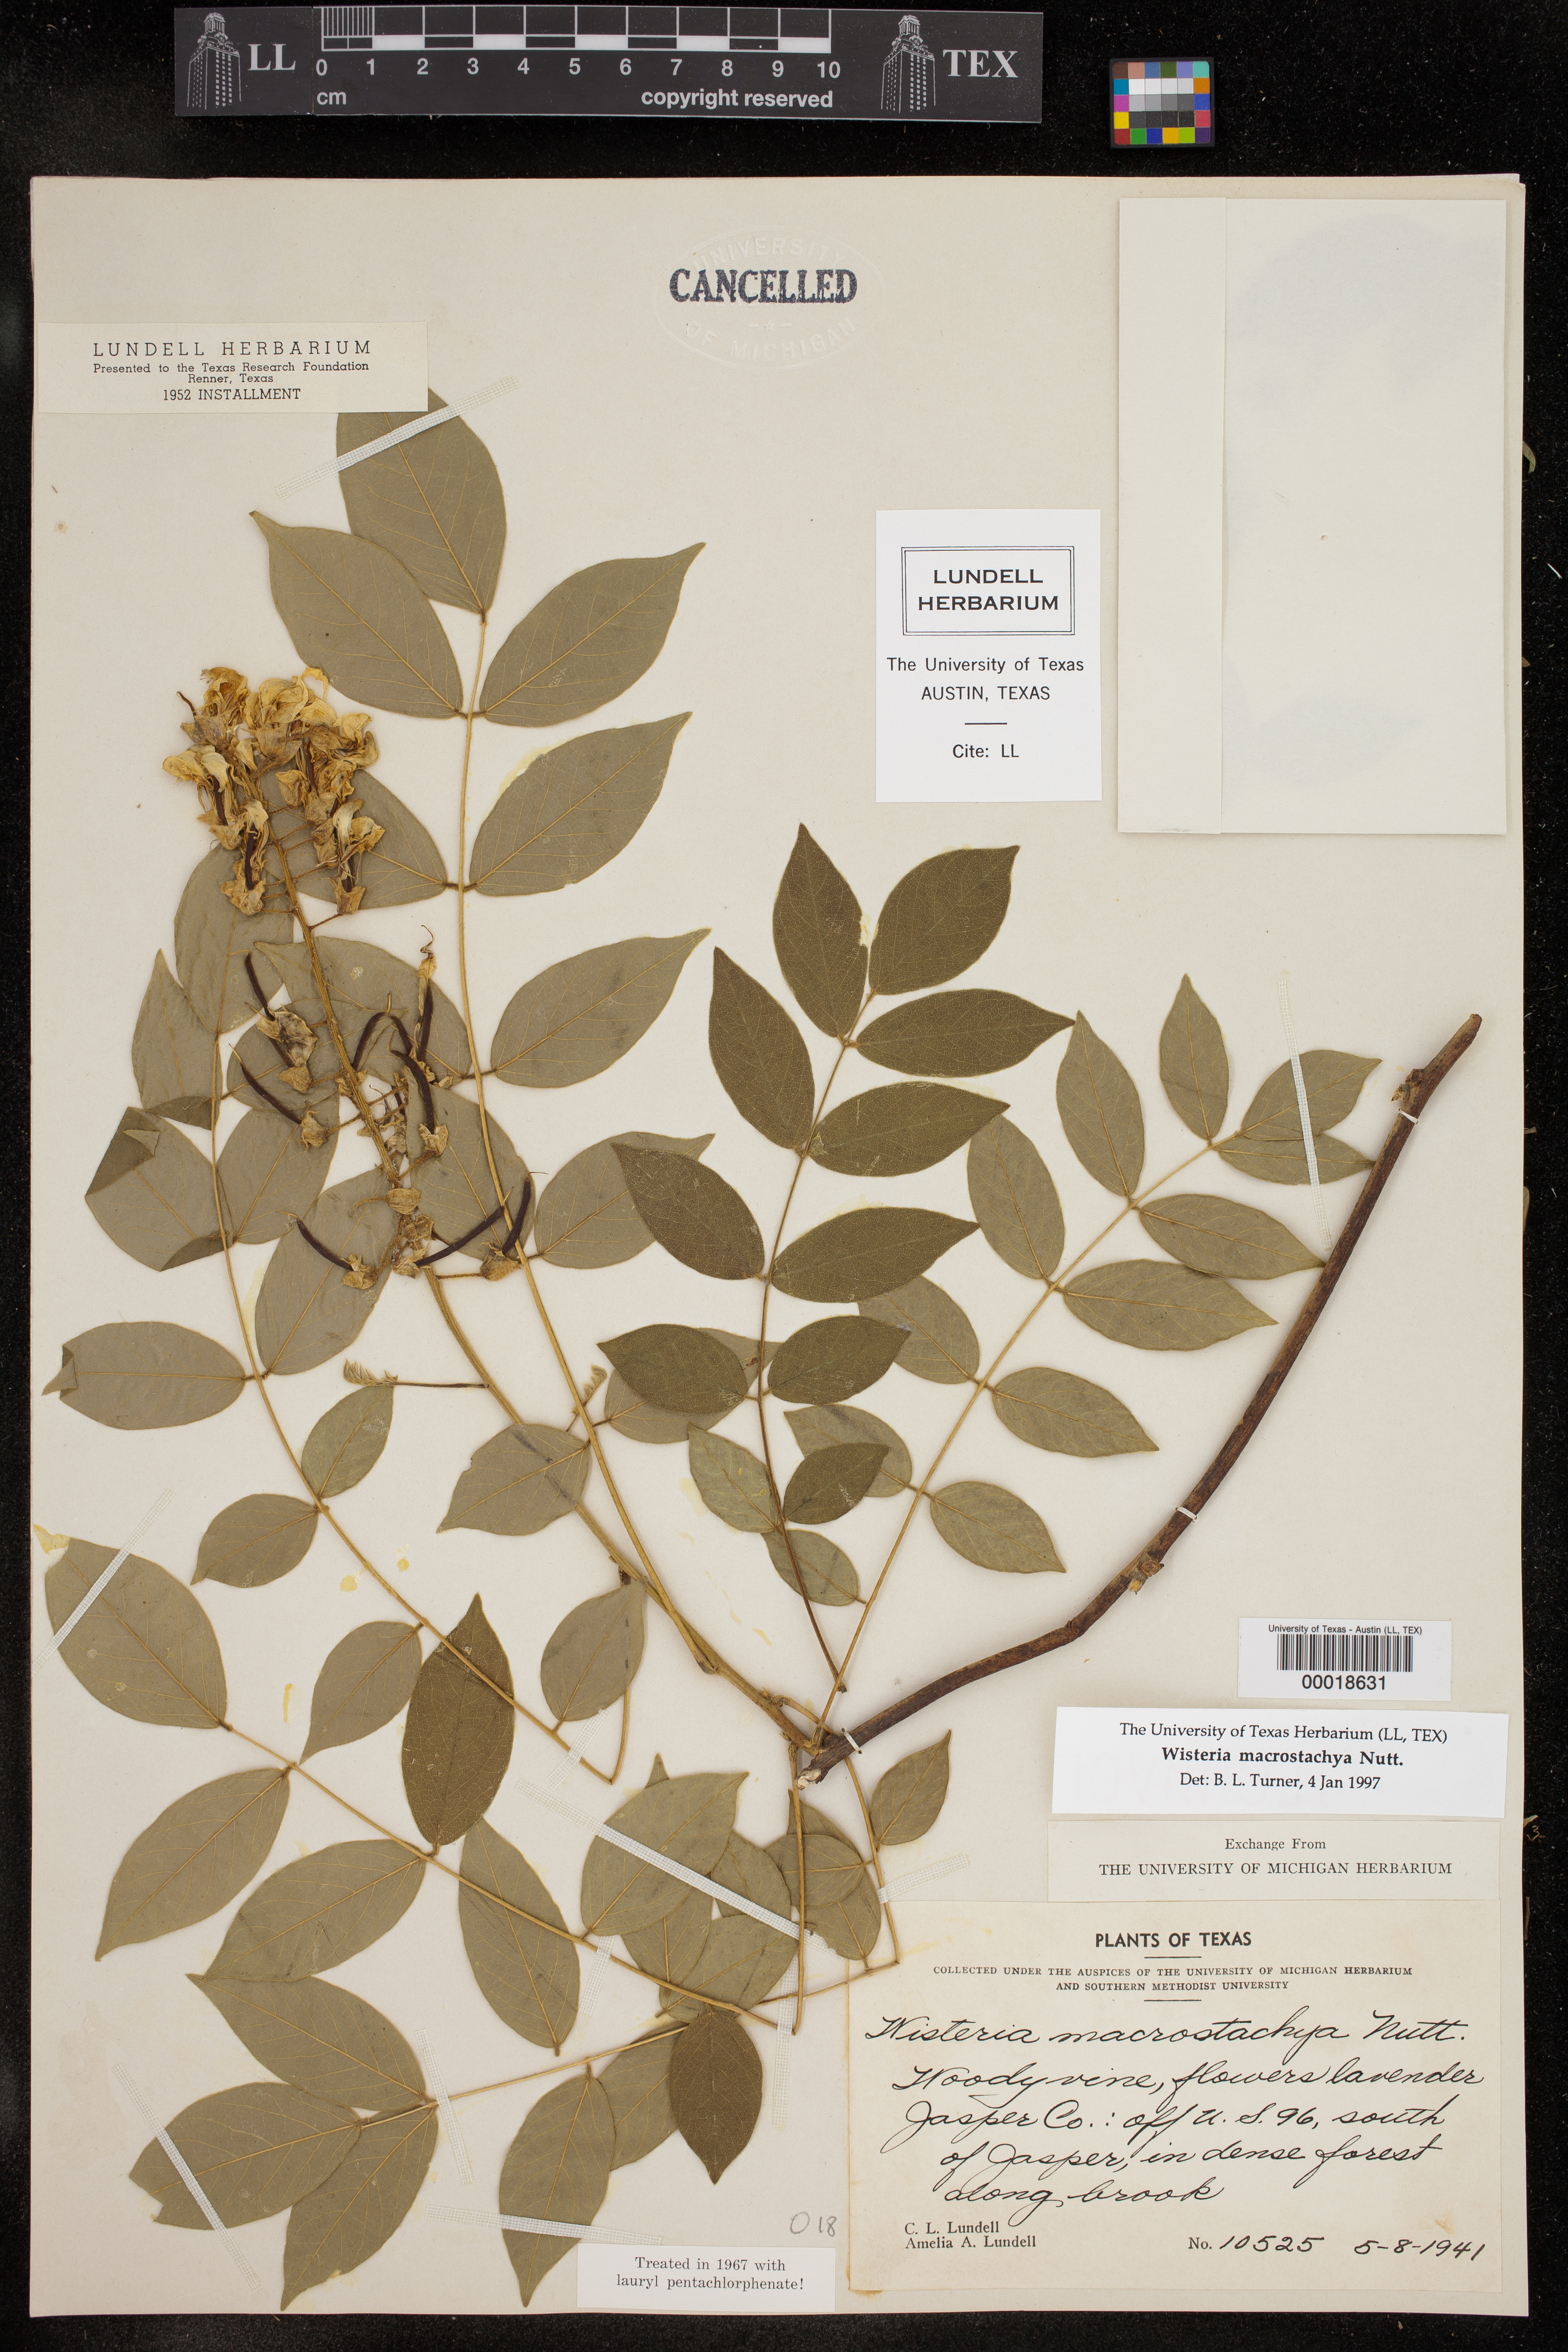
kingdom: Plantae
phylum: Tracheophyta
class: Magnoliopsida
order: Fabales
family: Fabaceae
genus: Wisteria
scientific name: Wisteria frutescens
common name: American wisteria
